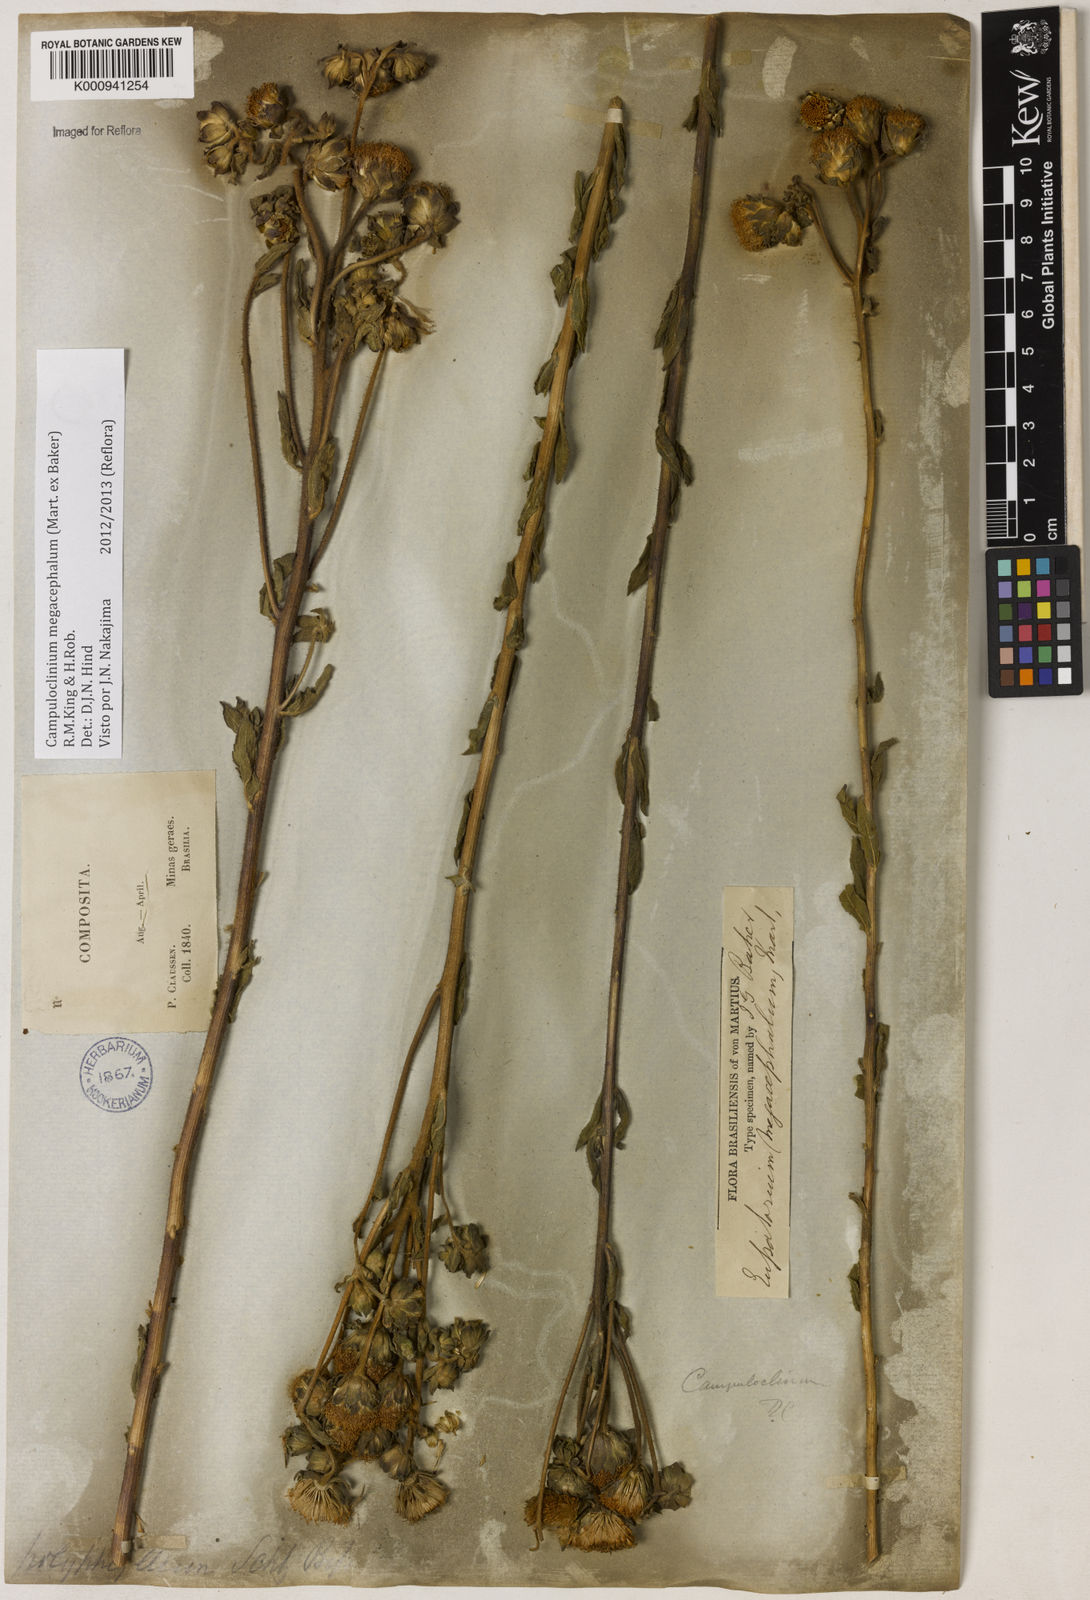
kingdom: Plantae
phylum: Tracheophyta
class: Magnoliopsida
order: Asterales
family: Asteraceae
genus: Campuloclinium
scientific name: Campuloclinium megacephalum
